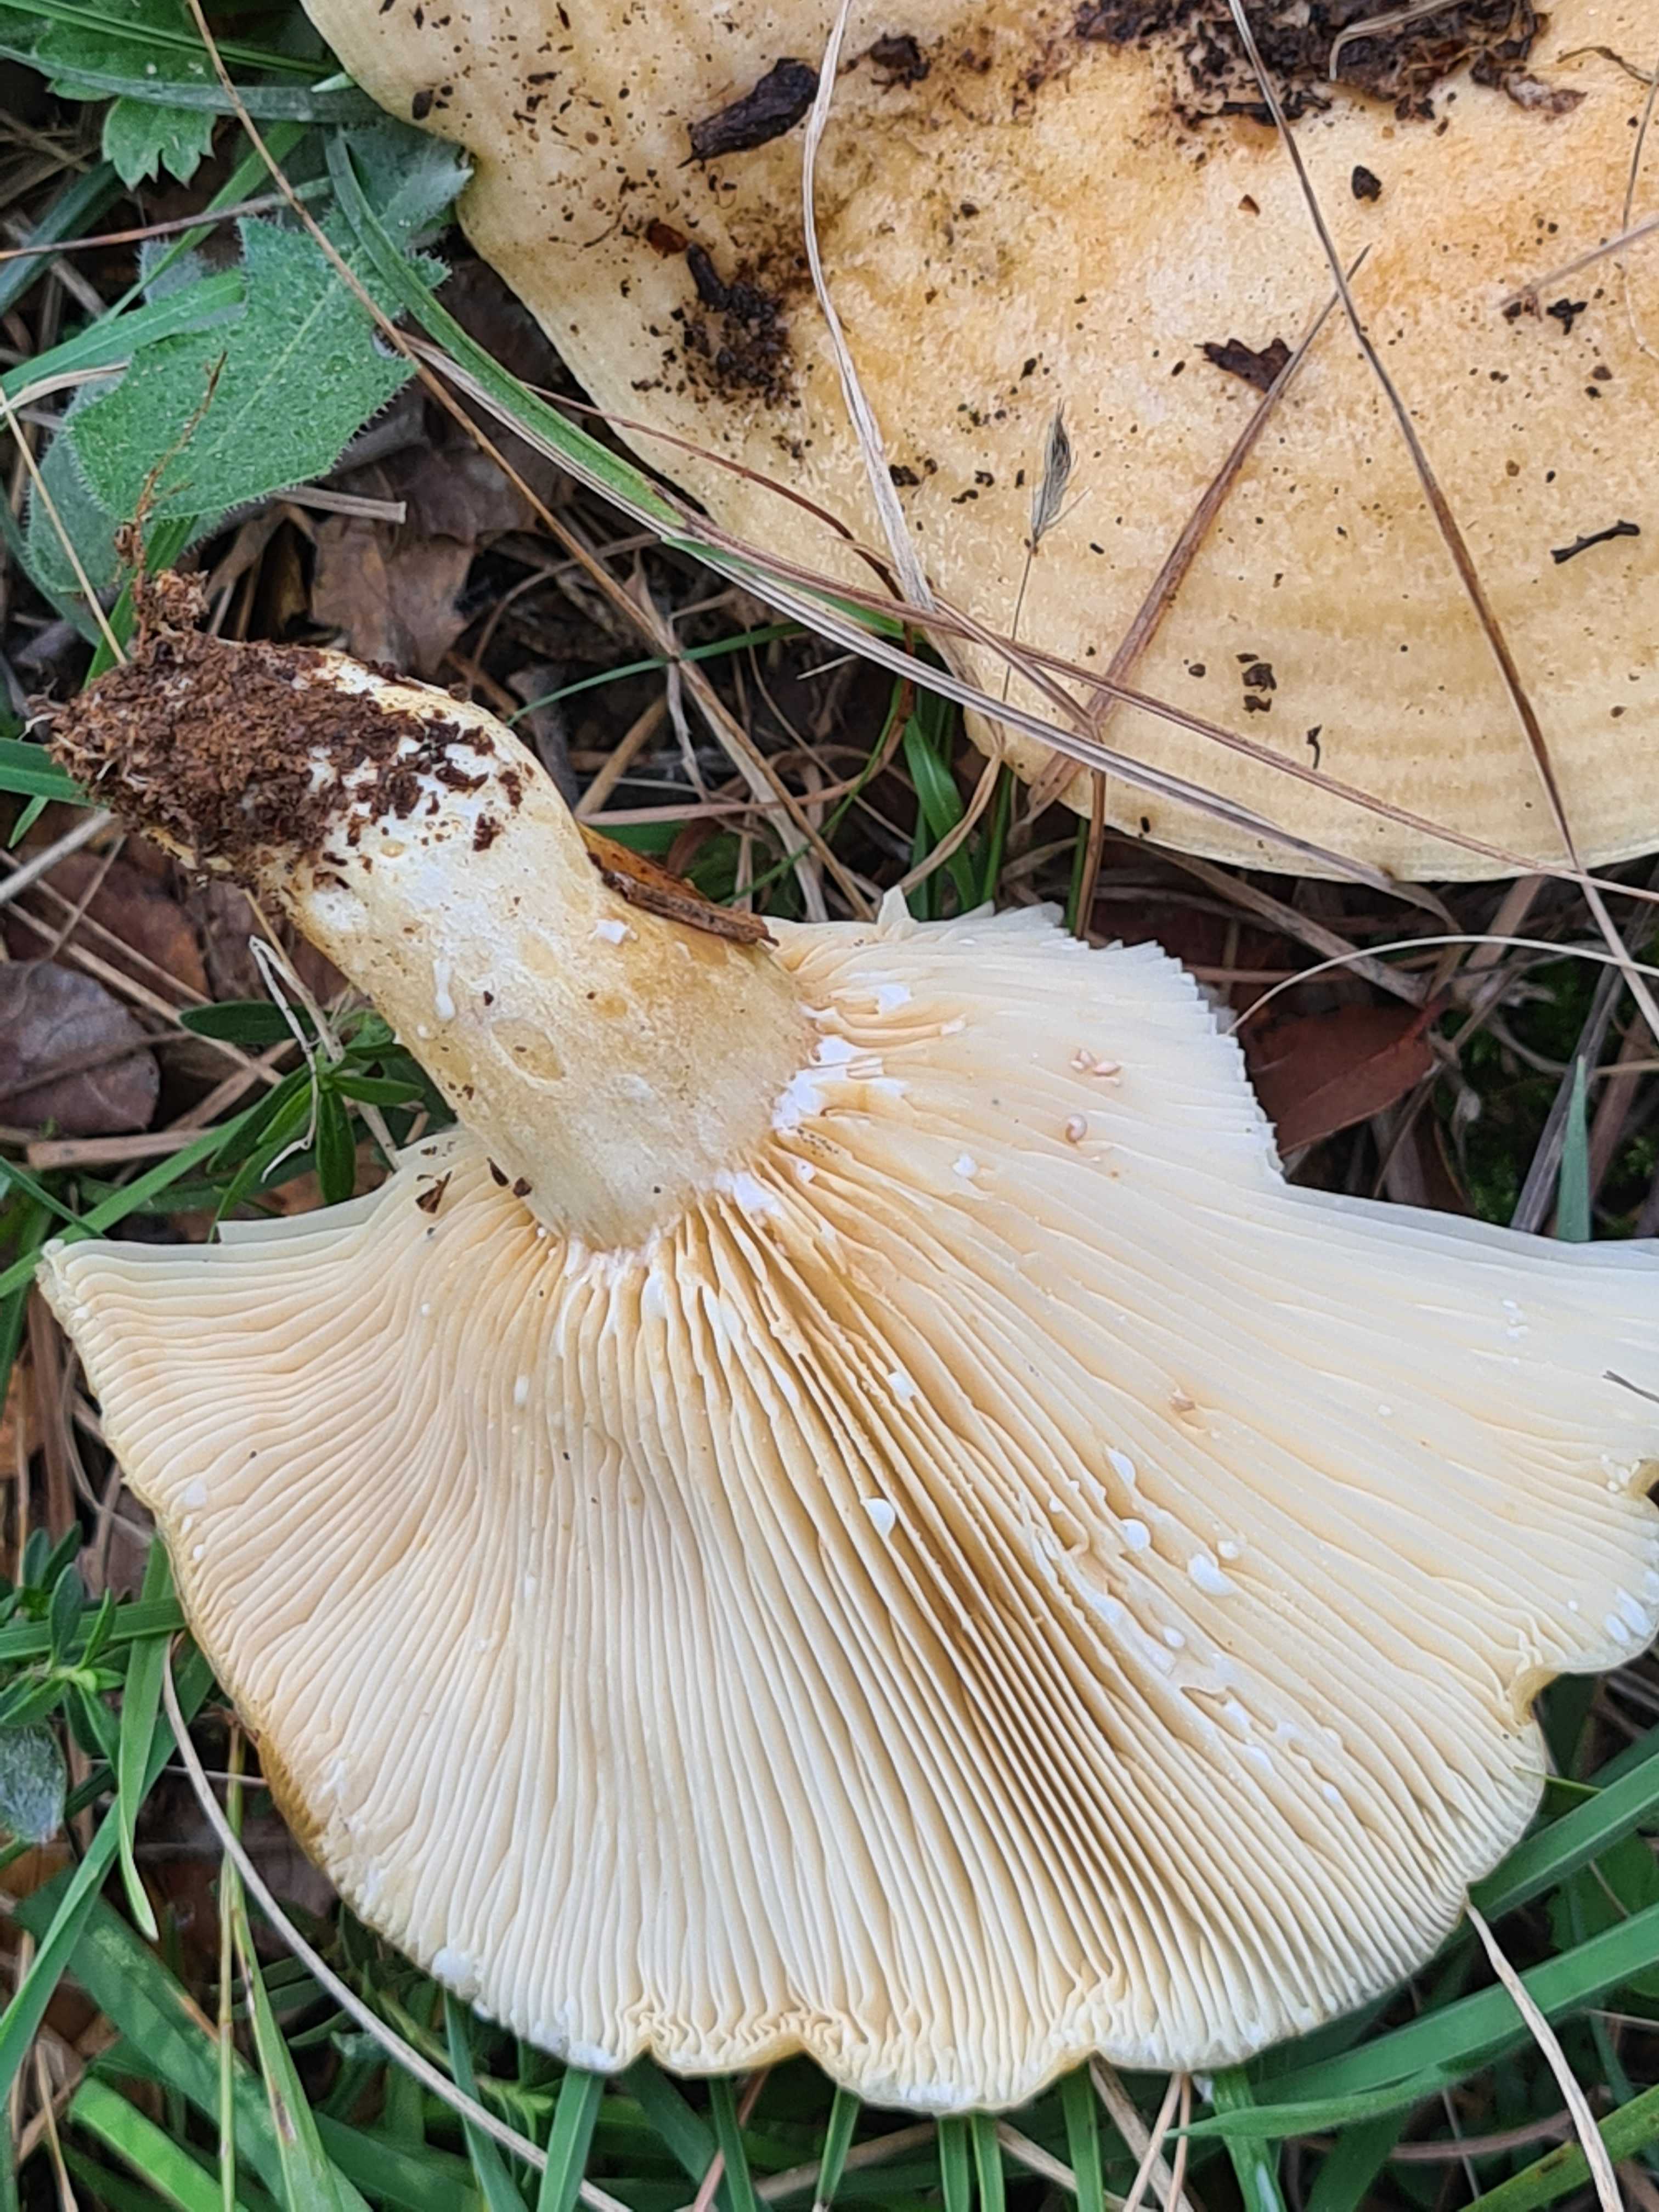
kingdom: Fungi
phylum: Basidiomycota
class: Agaricomycetes
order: Russulales
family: Russulaceae
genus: Lactarius
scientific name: Lactarius zonarius
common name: zoneret mælkehat
